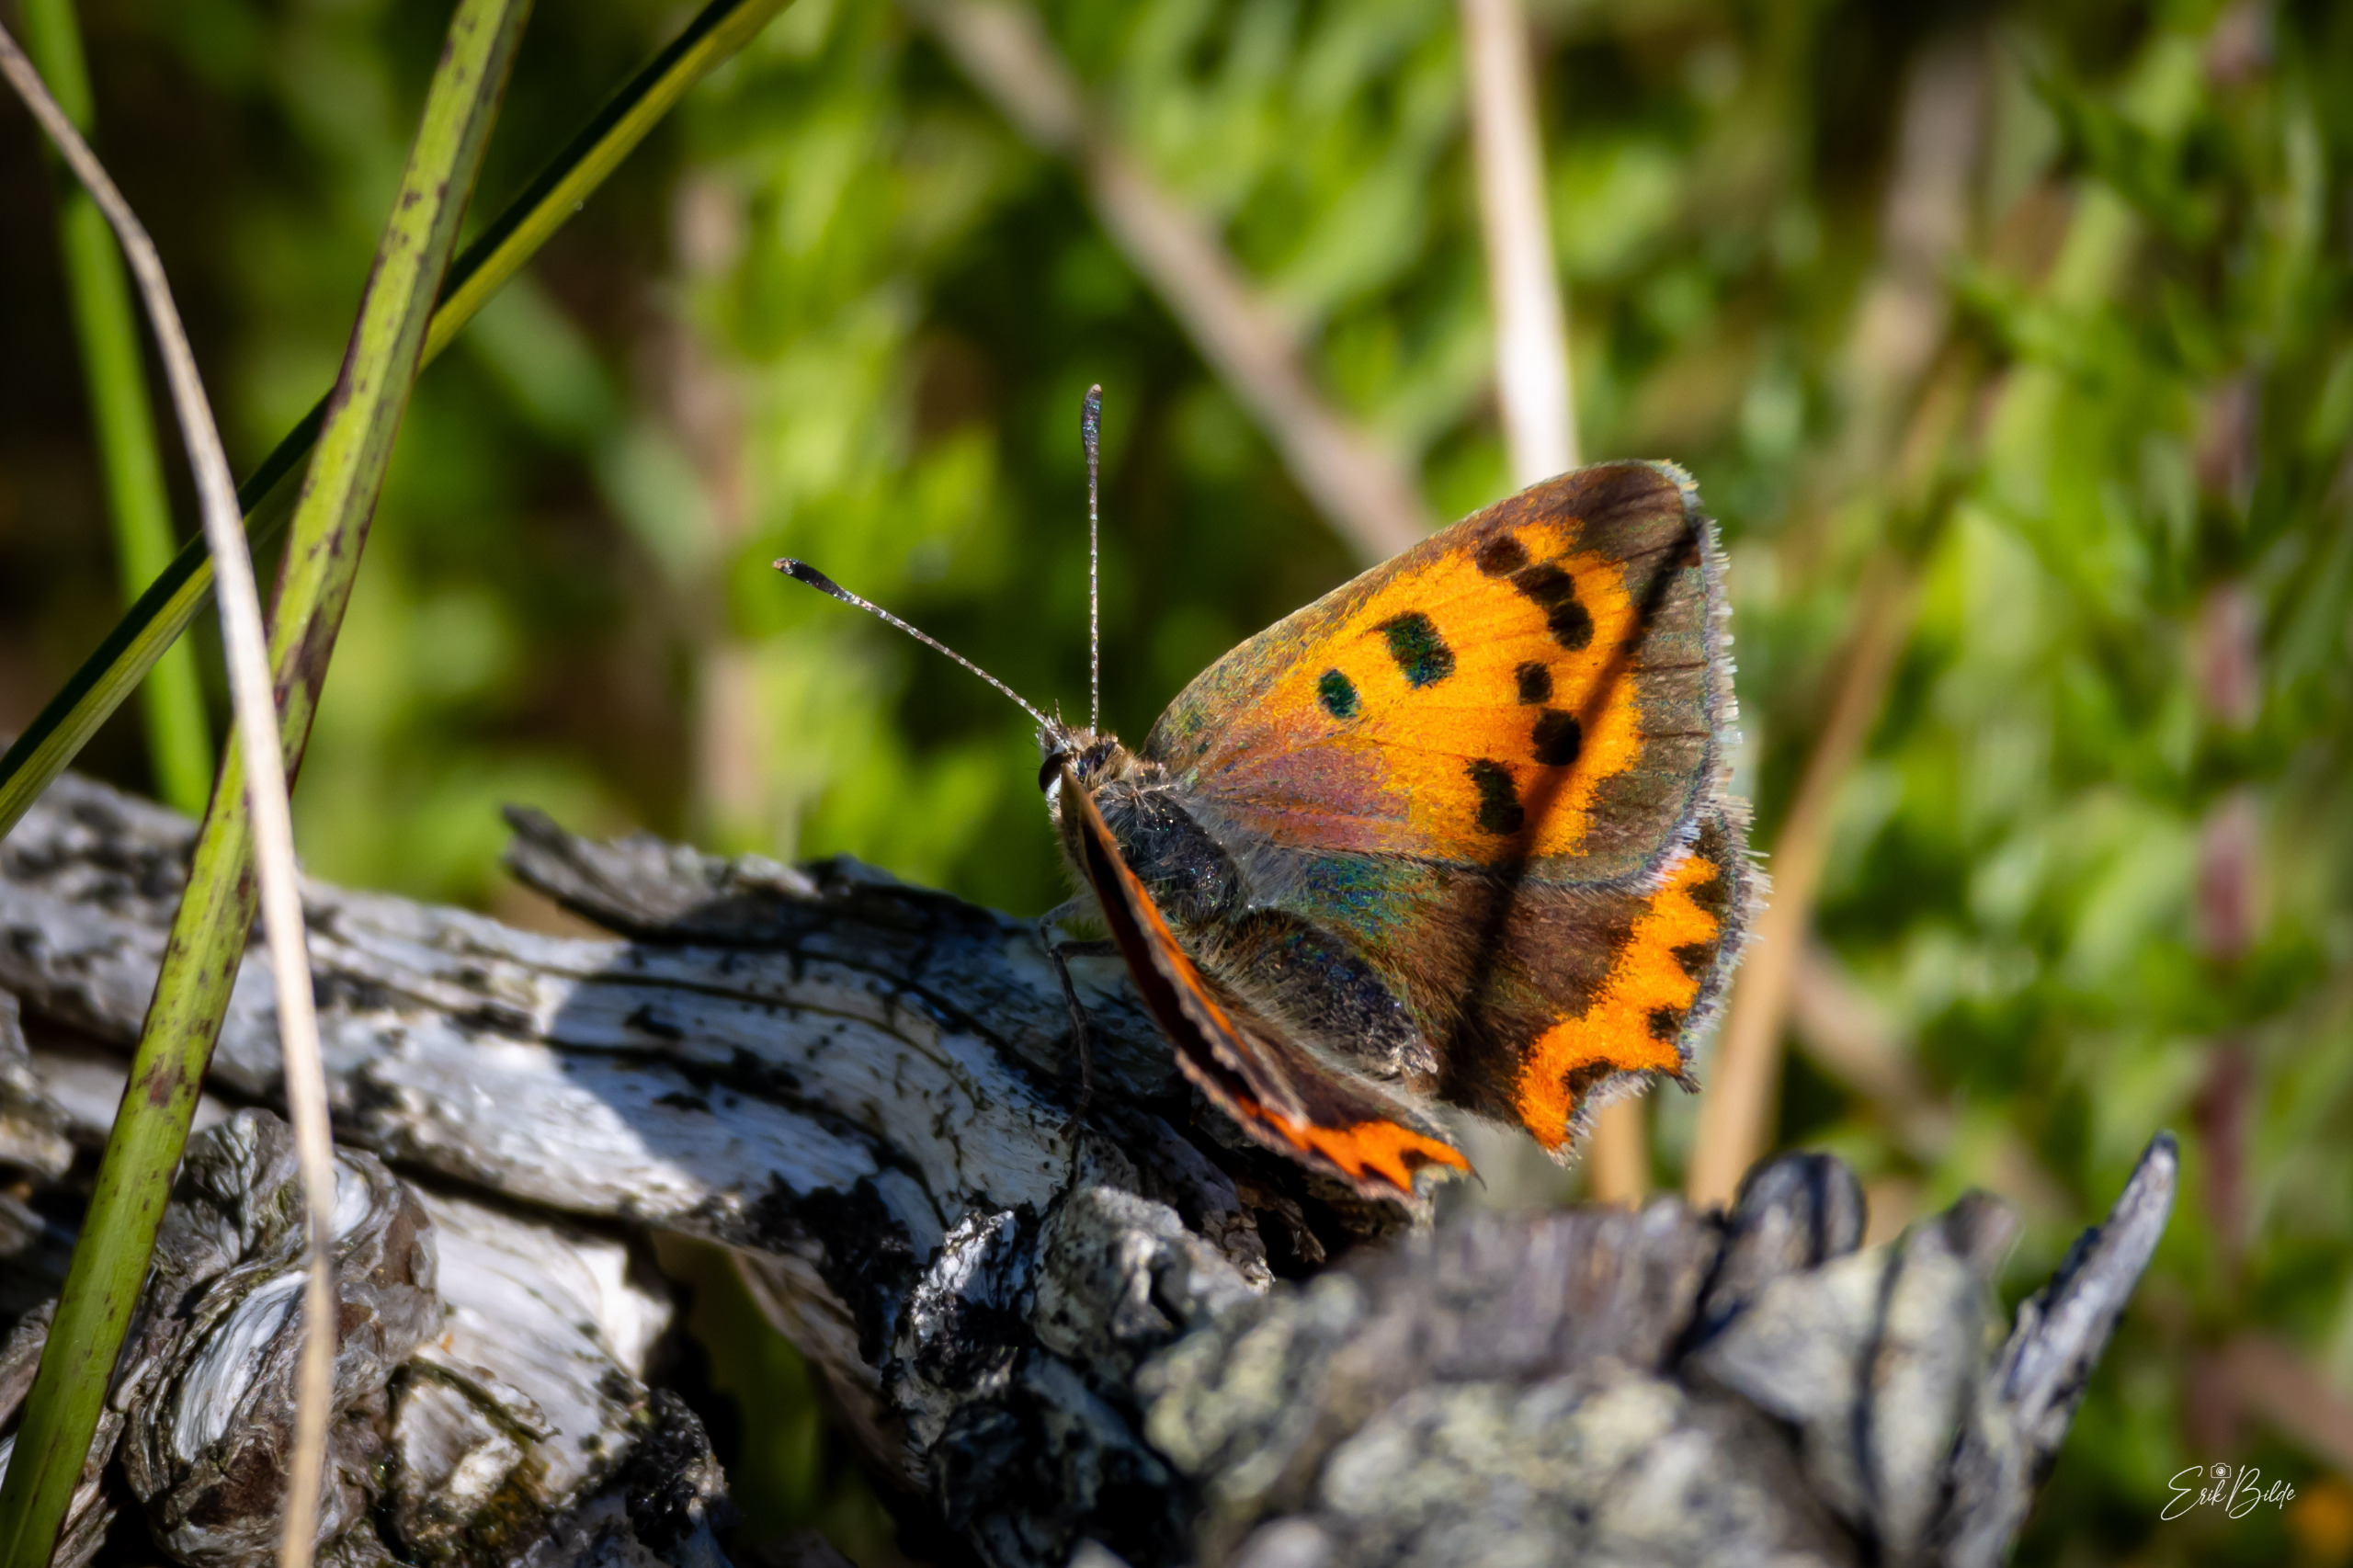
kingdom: Animalia
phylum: Arthropoda
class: Insecta
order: Lepidoptera
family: Lycaenidae
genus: Lycaena
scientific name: Lycaena phlaeas
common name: Lille ildfugl
